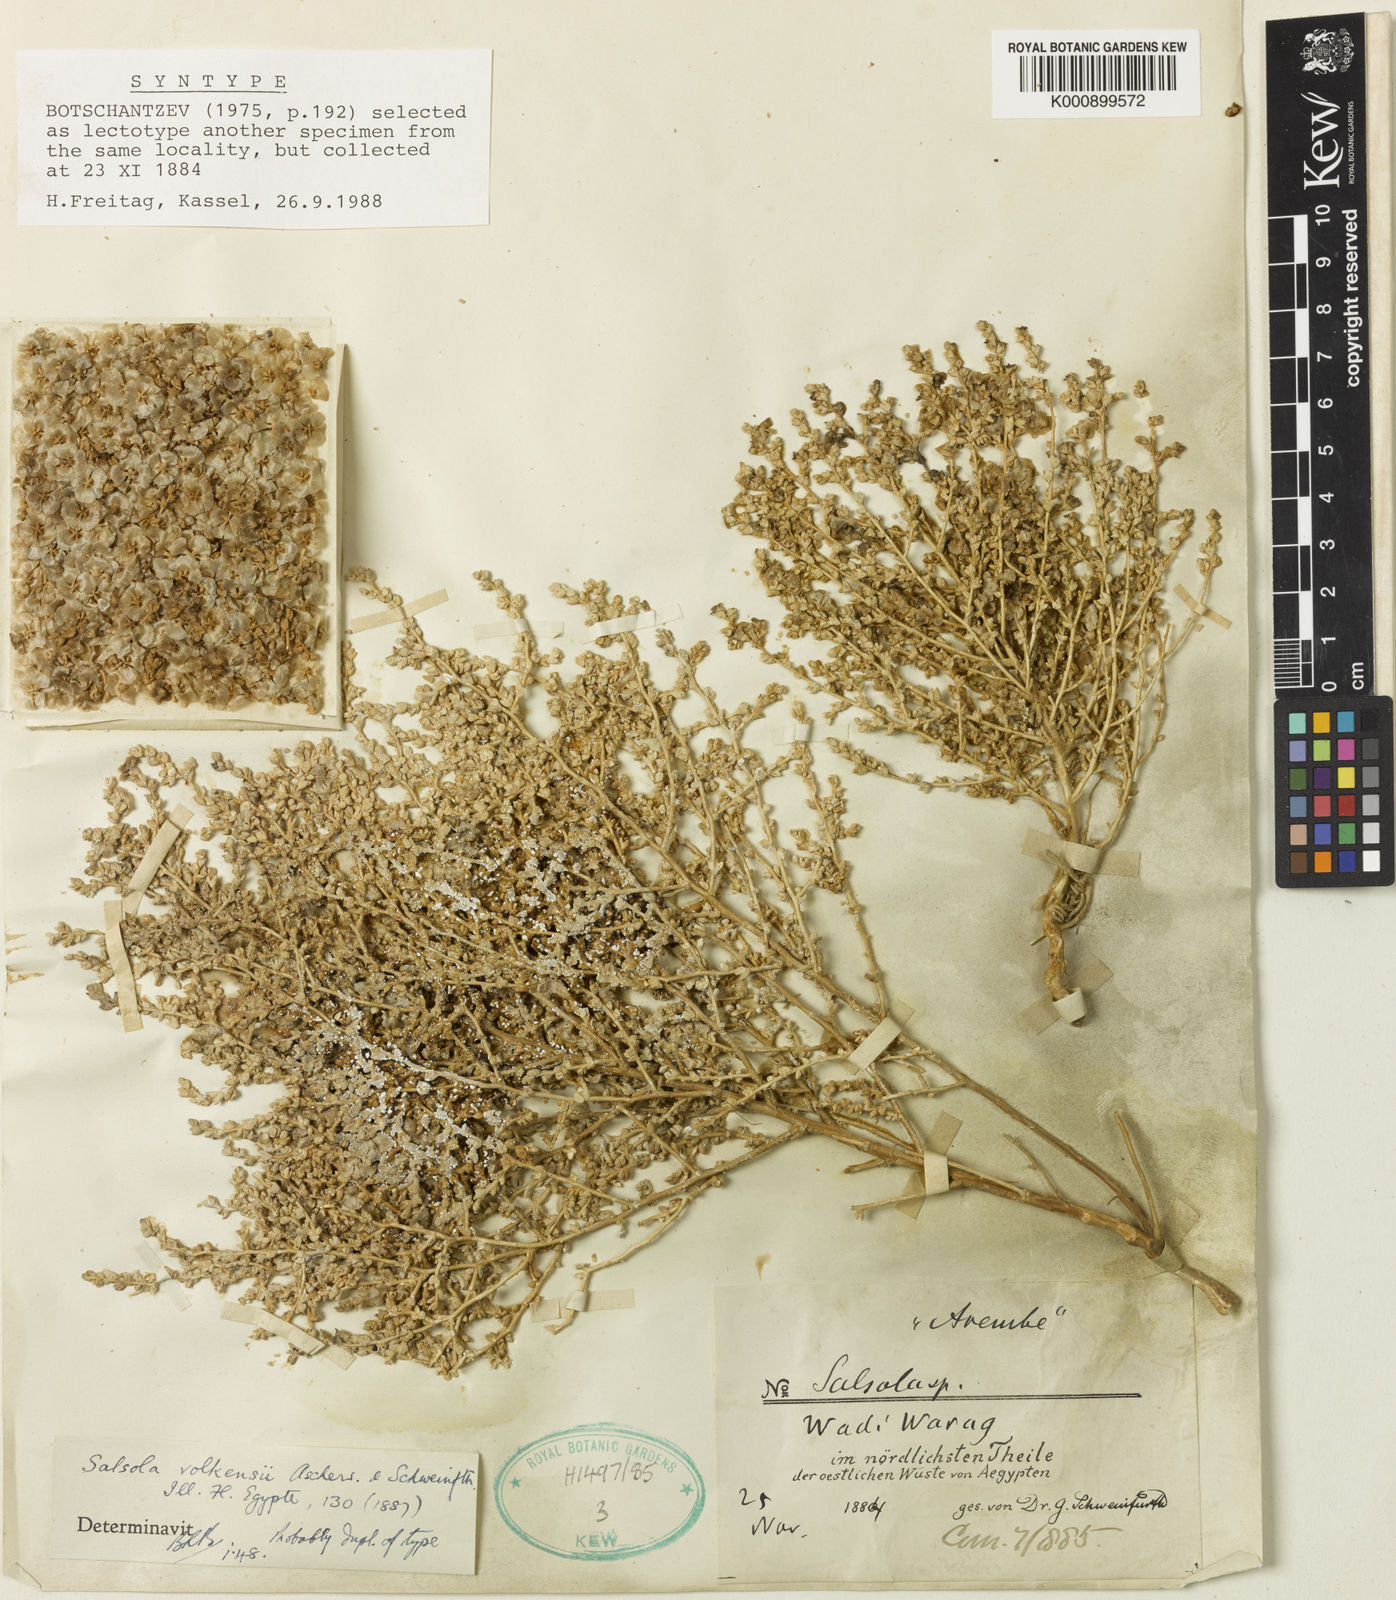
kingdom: Plantae
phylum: Tracheophyta
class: Magnoliopsida
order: Caryophyllales
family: Amaranthaceae
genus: Nitrosalsola
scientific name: Nitrosalsola volkensii
